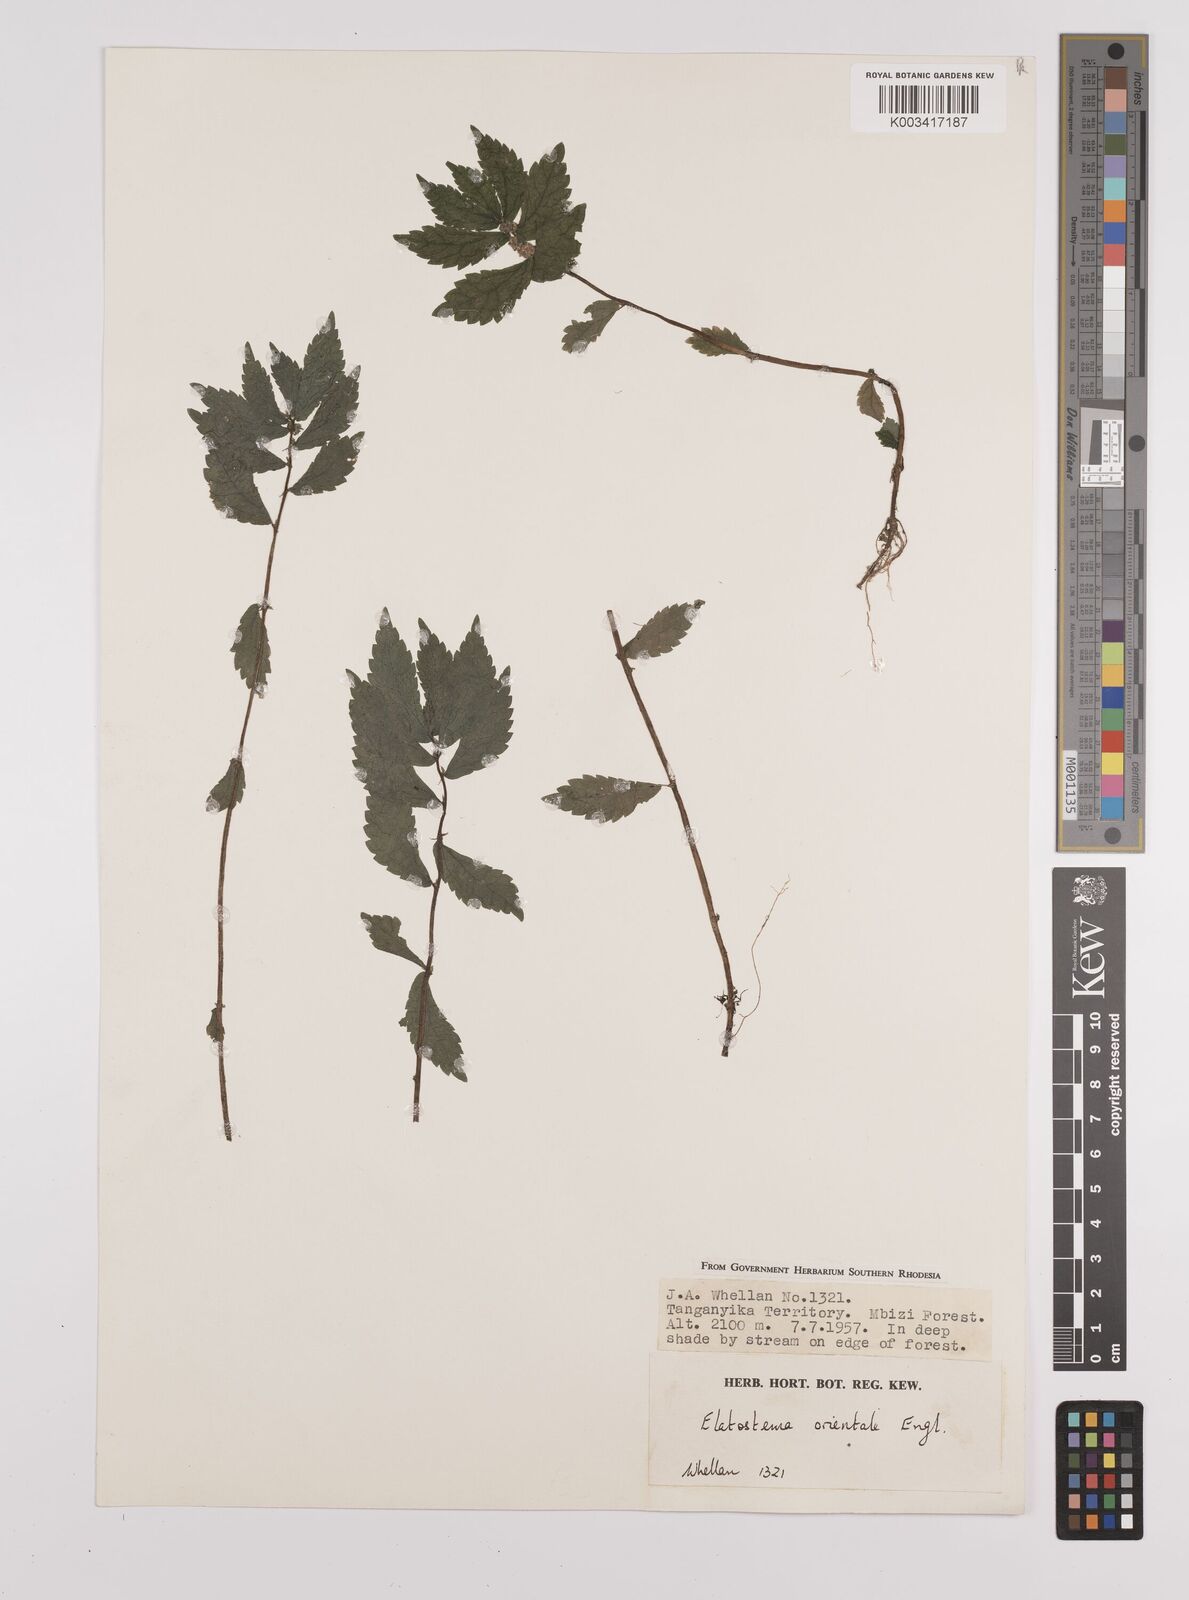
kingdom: Plantae
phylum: Tracheophyta
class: Magnoliopsida
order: Rosales
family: Urticaceae
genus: Elatostema
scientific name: Elatostema monticola
